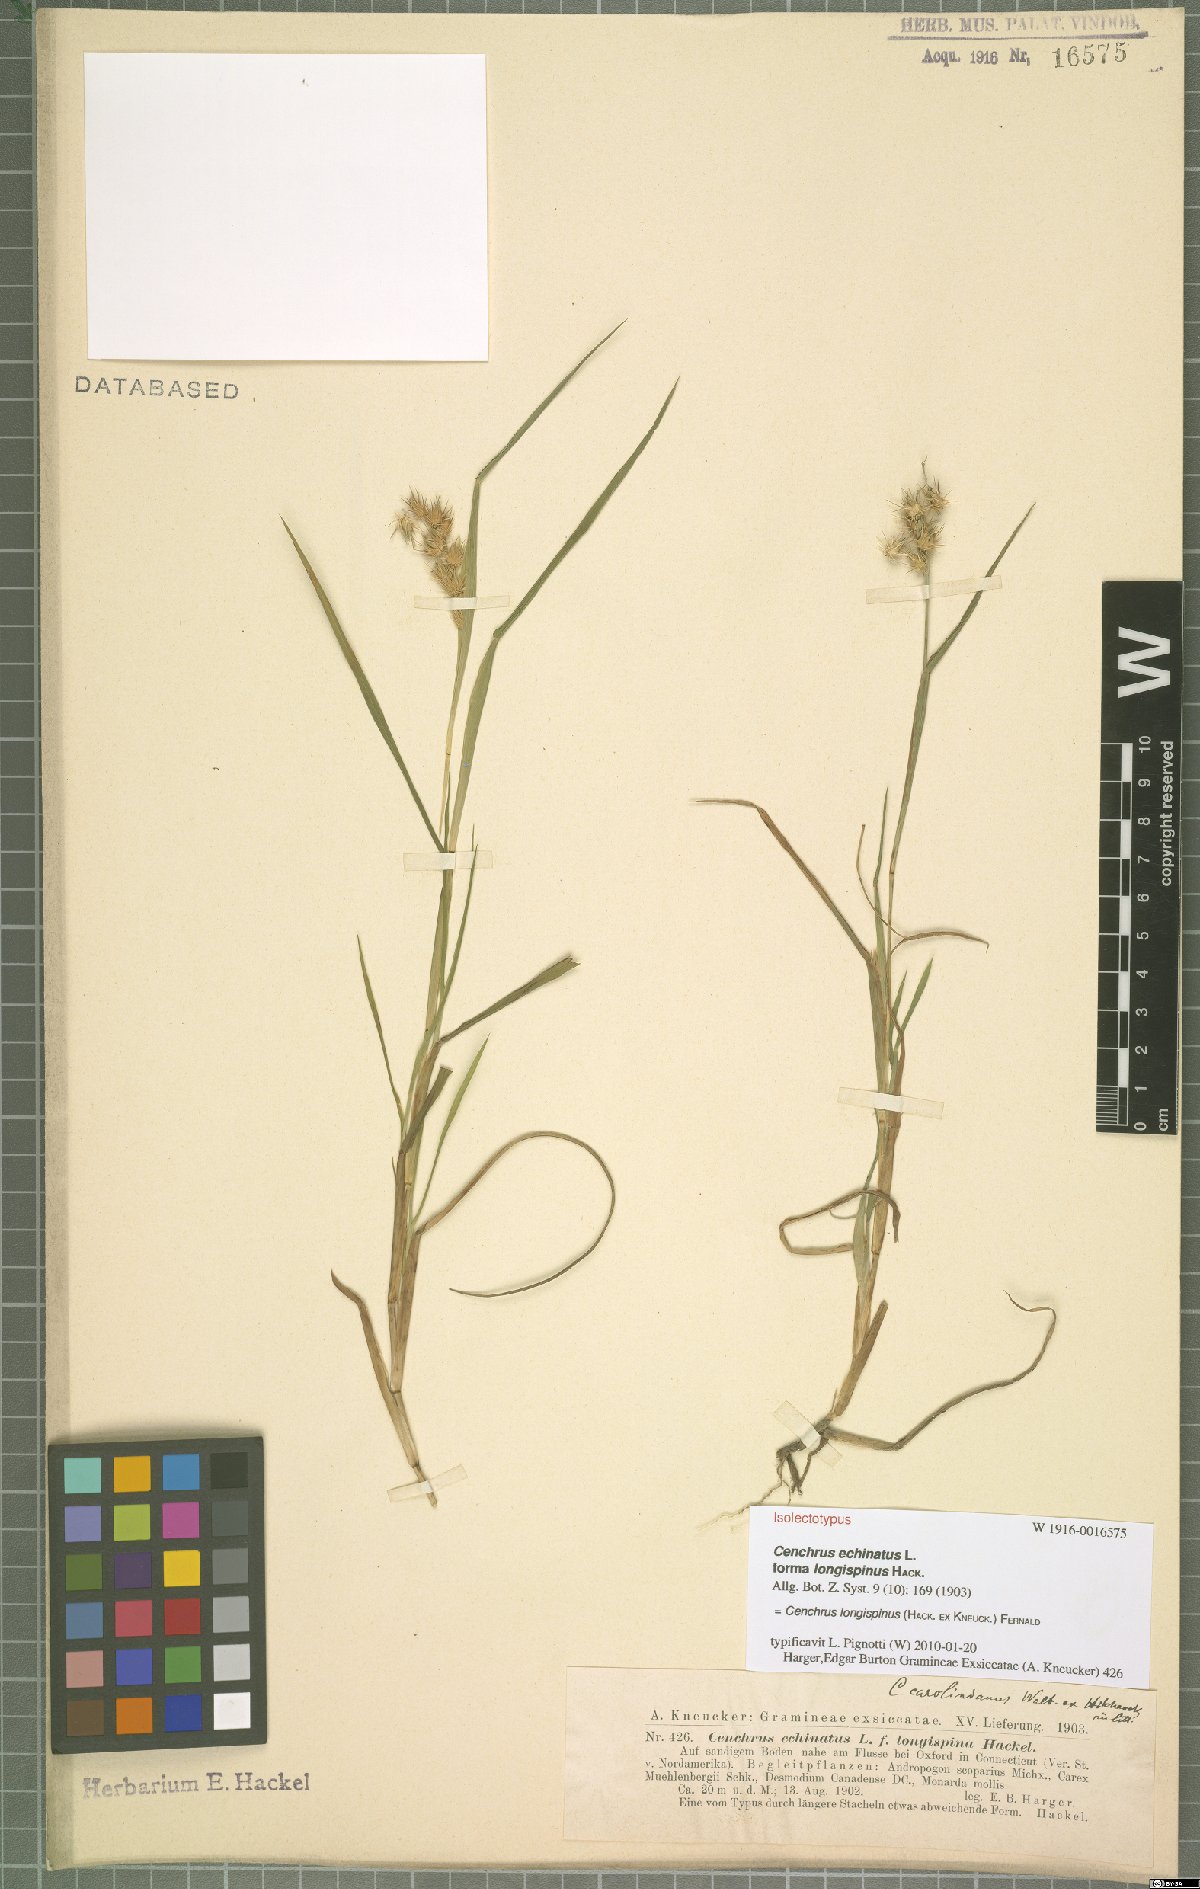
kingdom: Plantae
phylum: Tracheophyta
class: Liliopsida
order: Poales
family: Poaceae
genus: Cenchrus
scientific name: Cenchrus longispinus
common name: Mat sandbur
